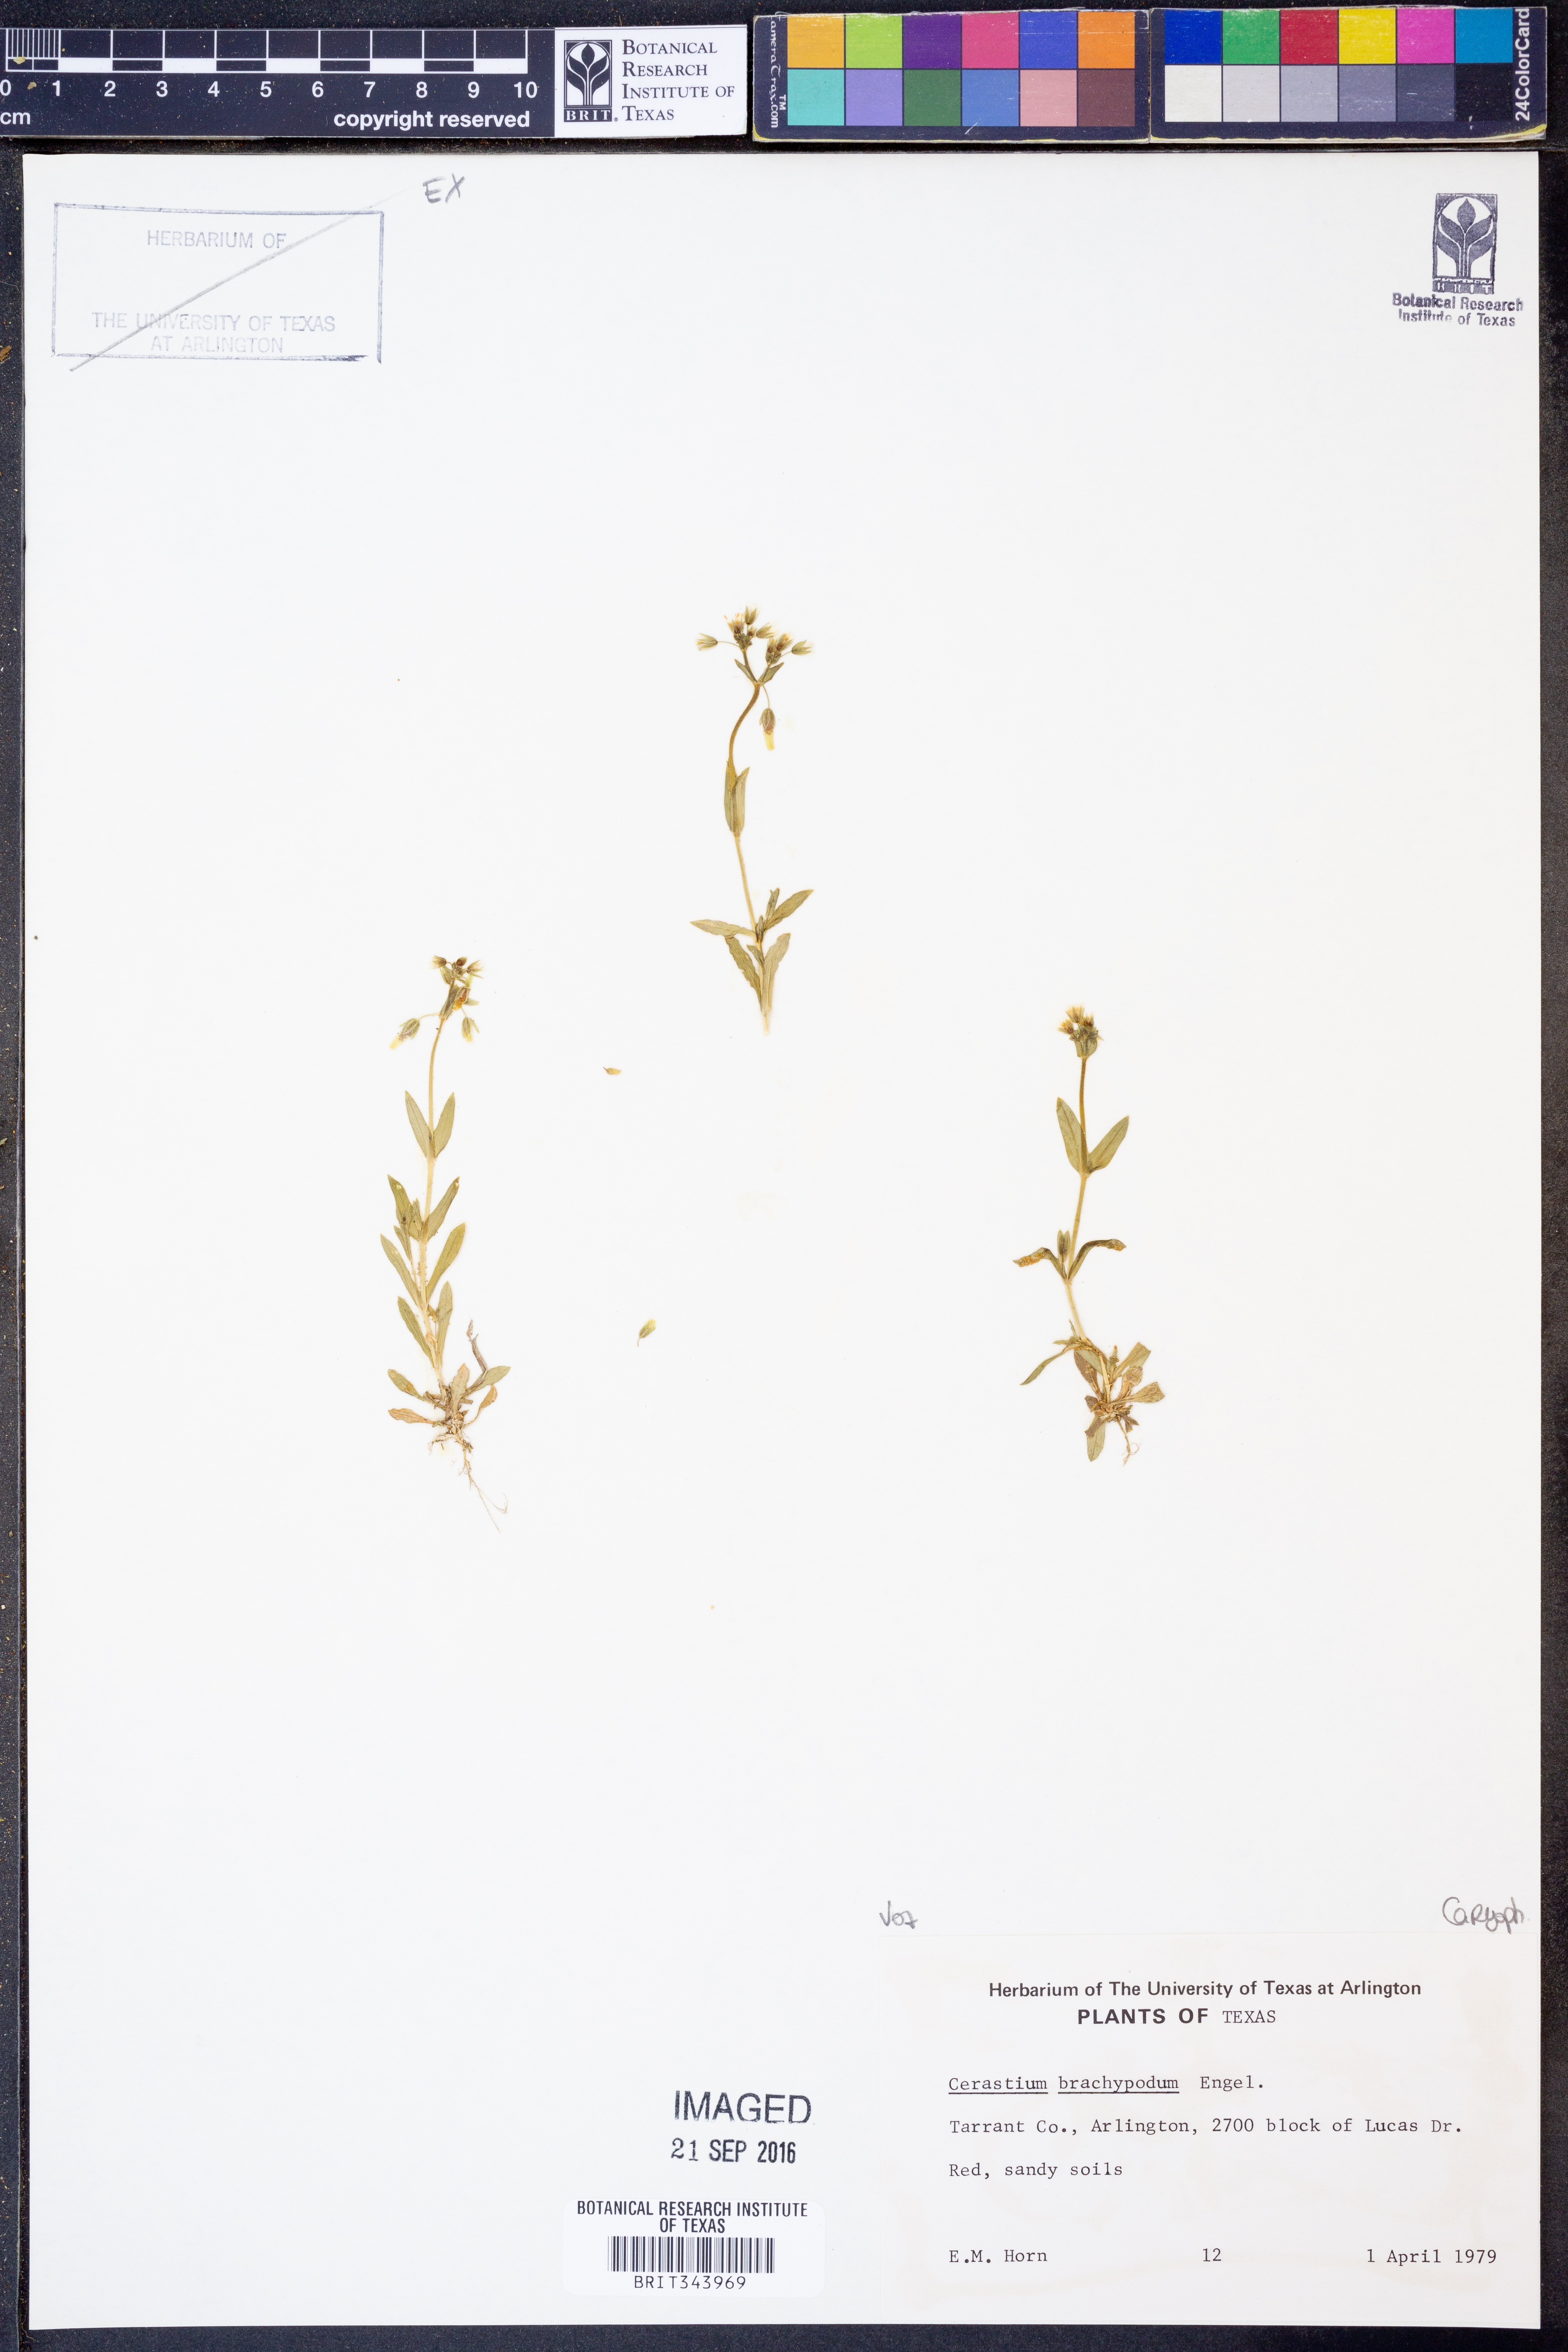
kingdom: Plantae
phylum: Tracheophyta
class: Magnoliopsida
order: Caryophyllales
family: Caryophyllaceae
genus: Cerastium
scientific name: Cerastium brachypodum
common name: Short-pedicelled nodding chickweed
